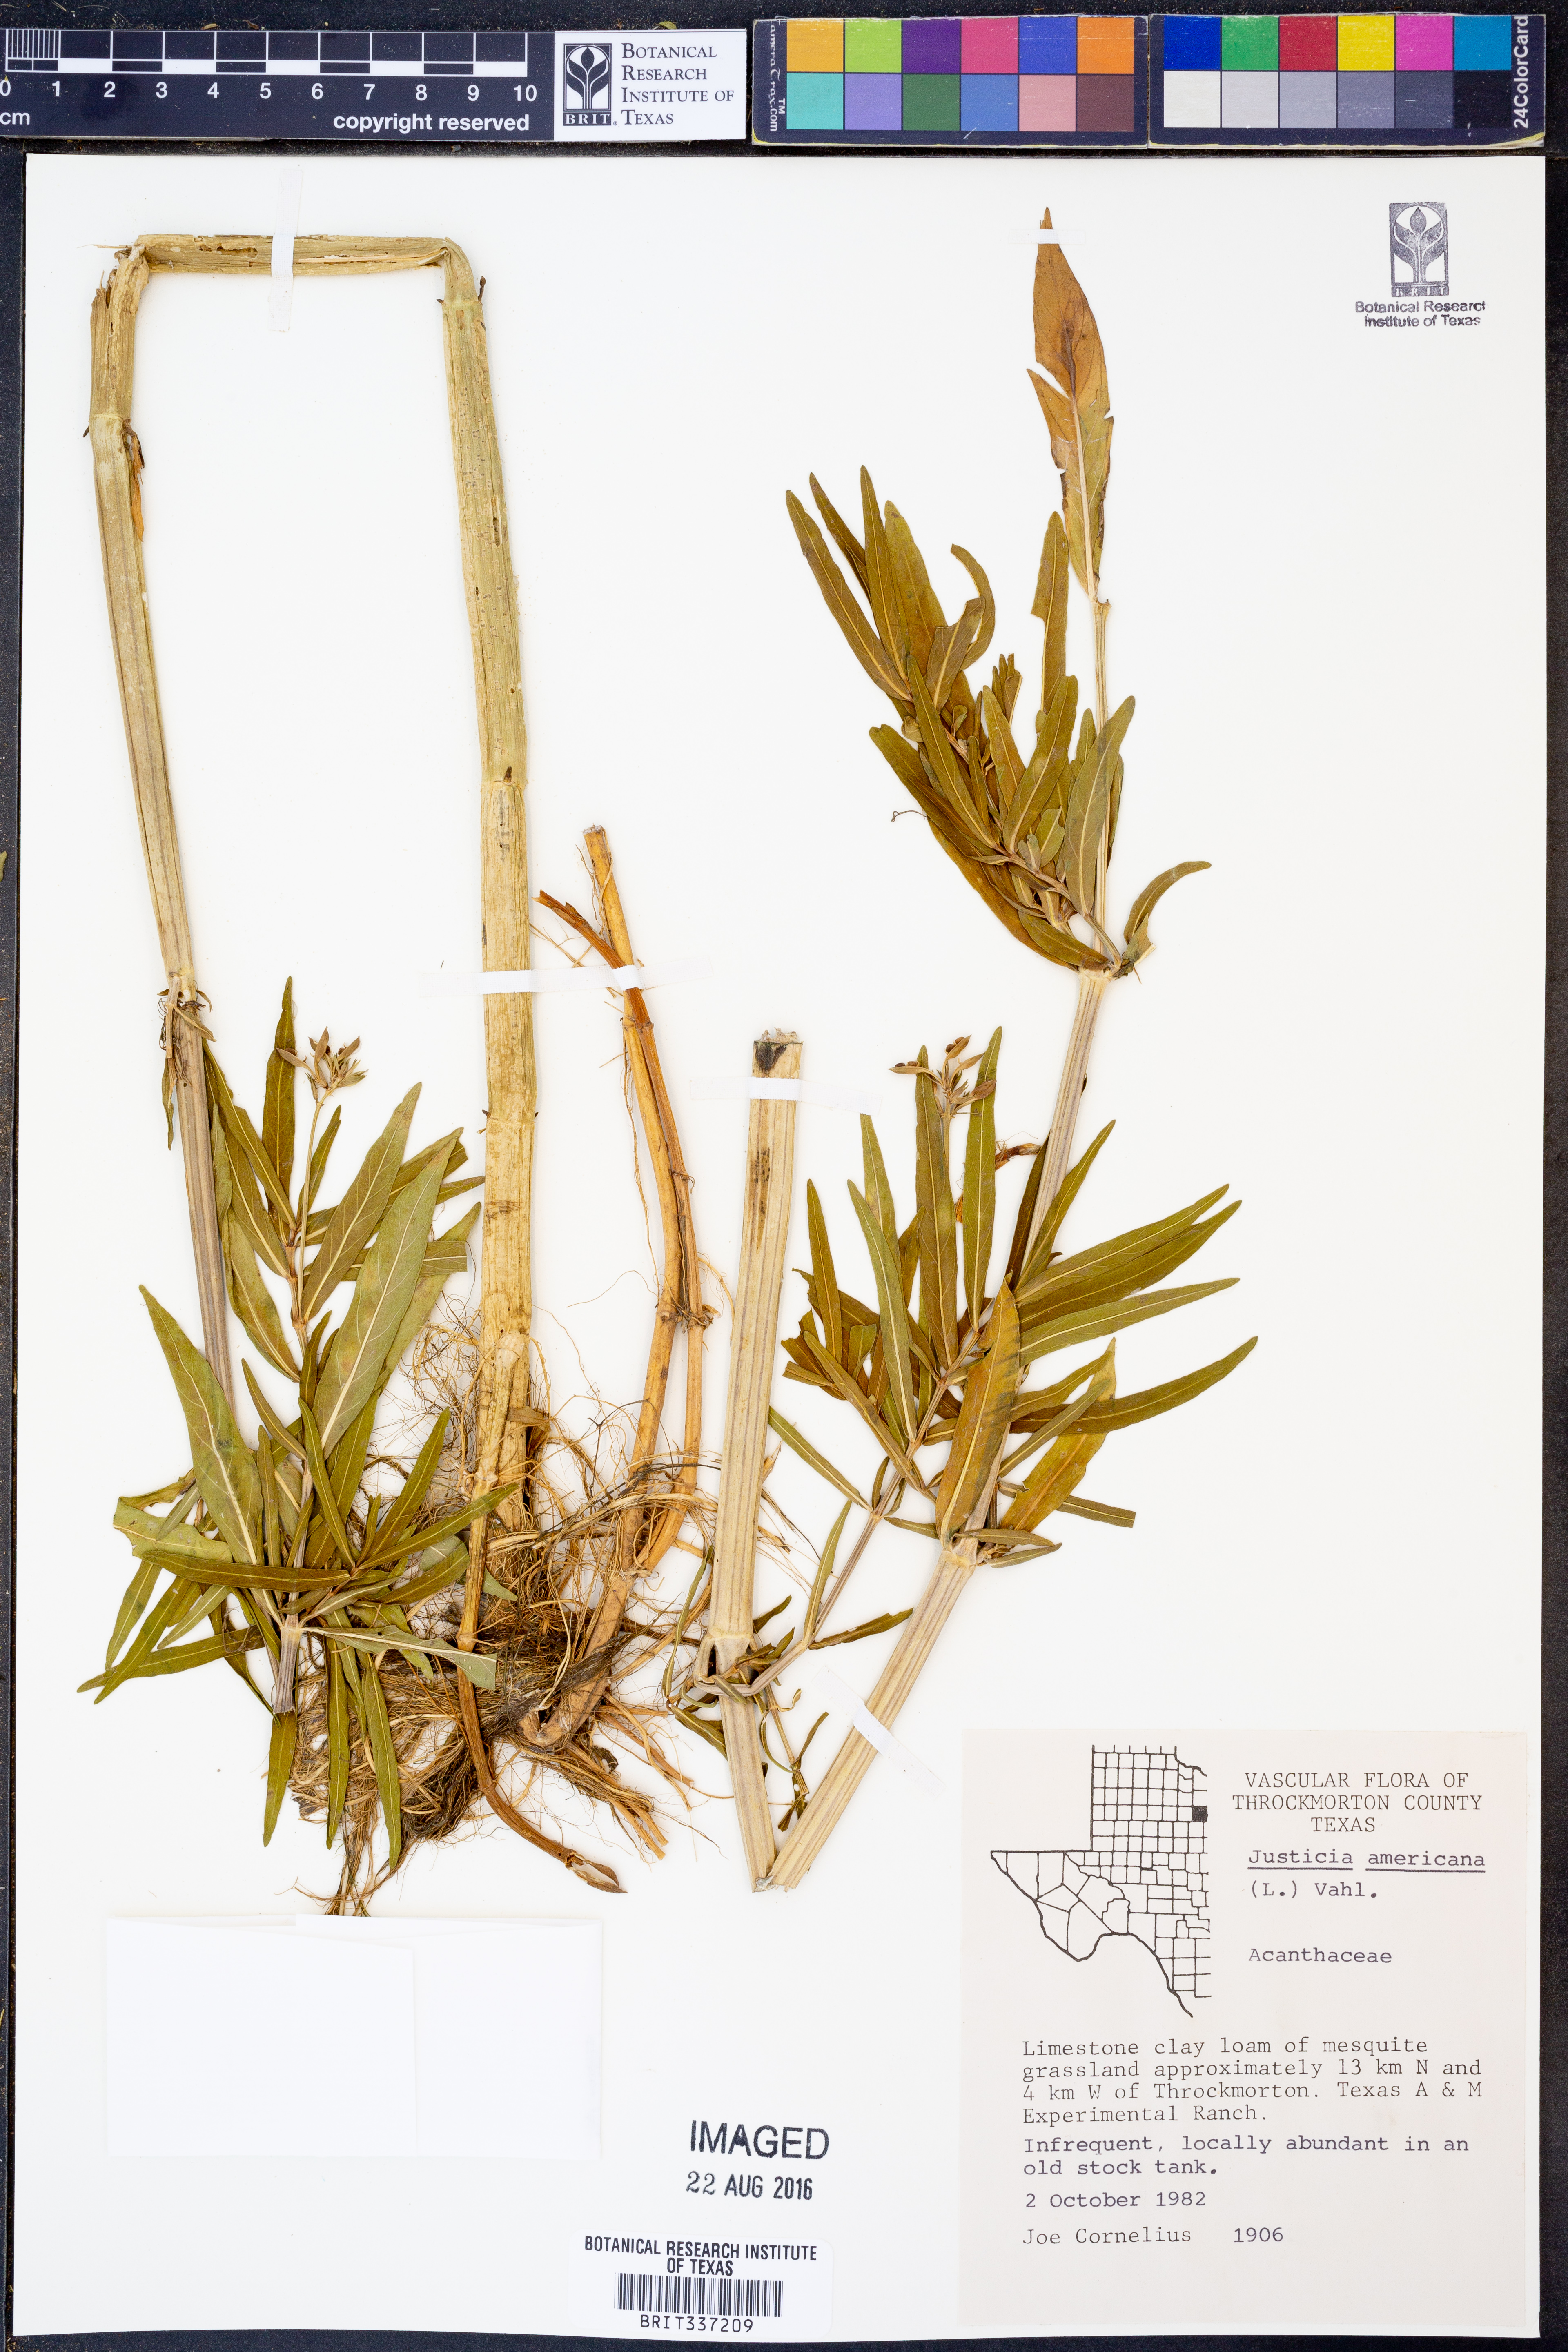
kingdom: Plantae
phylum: Tracheophyta
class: Magnoliopsida
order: Lamiales
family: Acanthaceae
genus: Dianthera
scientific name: Dianthera americana
